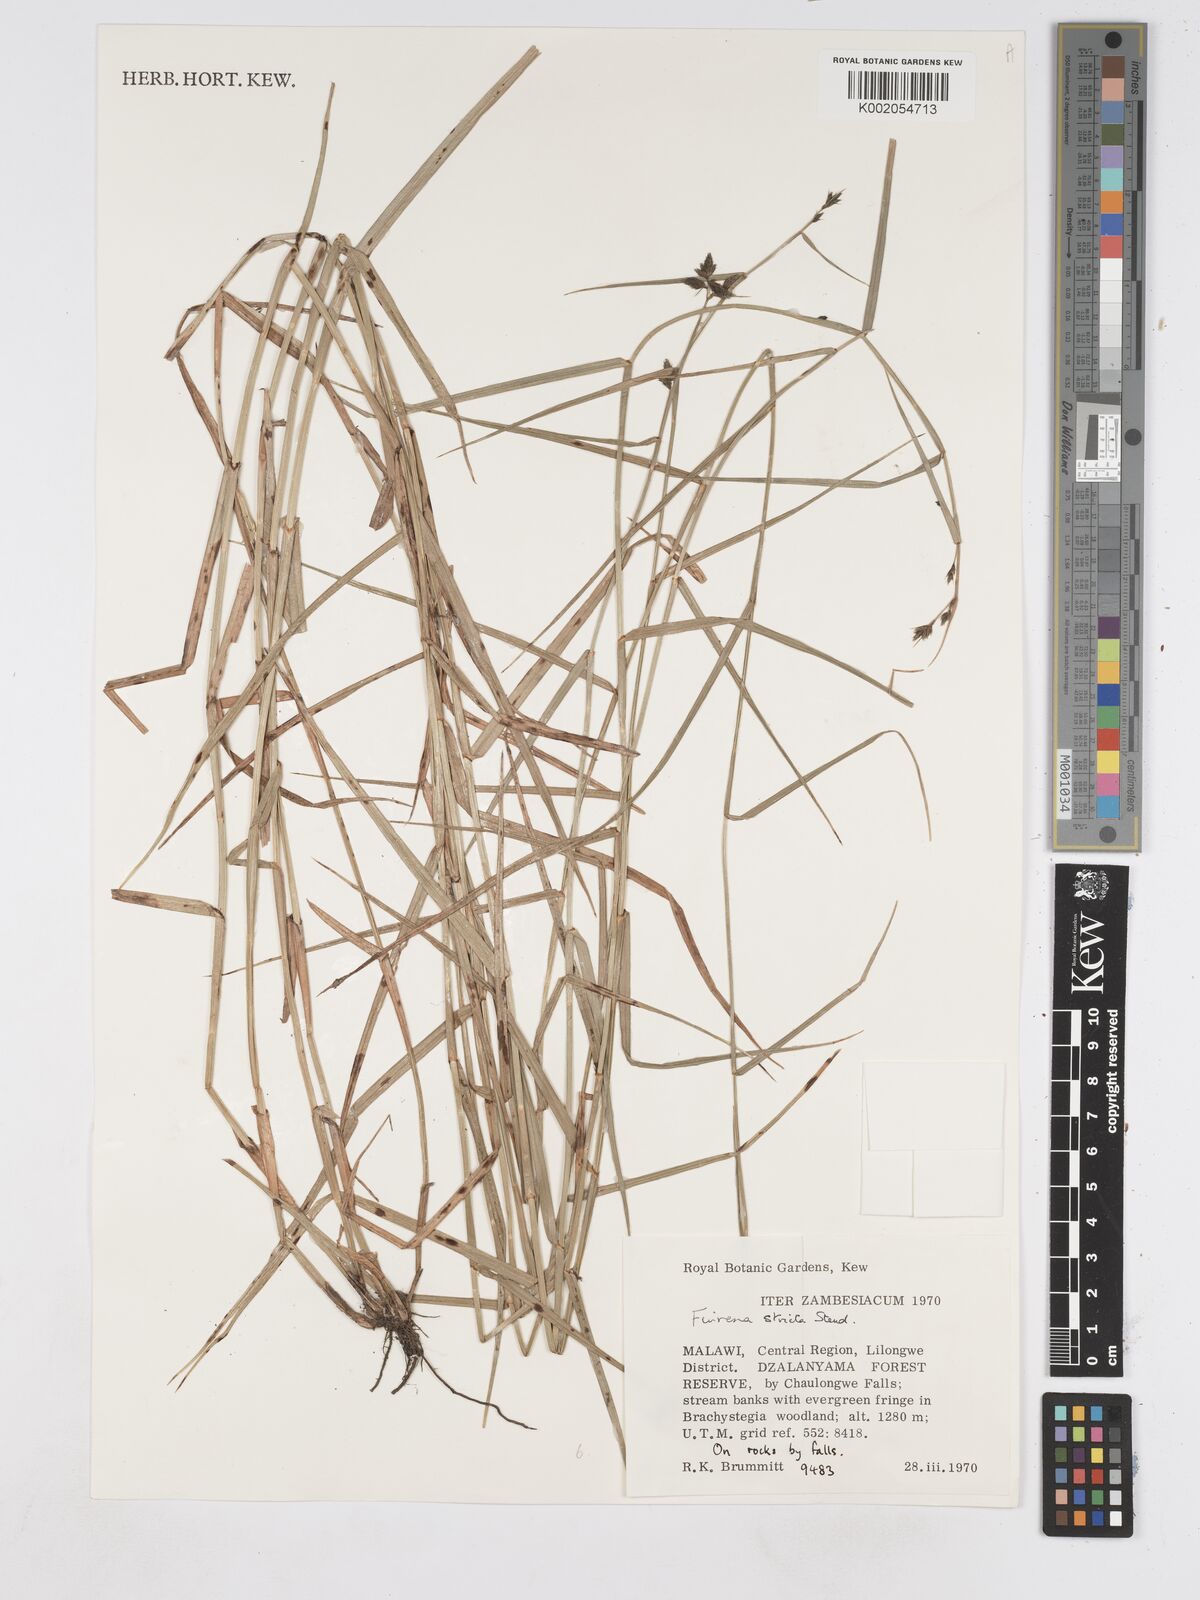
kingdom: Plantae
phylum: Tracheophyta
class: Liliopsida
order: Poales
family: Cyperaceae
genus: Fuirena
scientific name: Fuirena stricta
